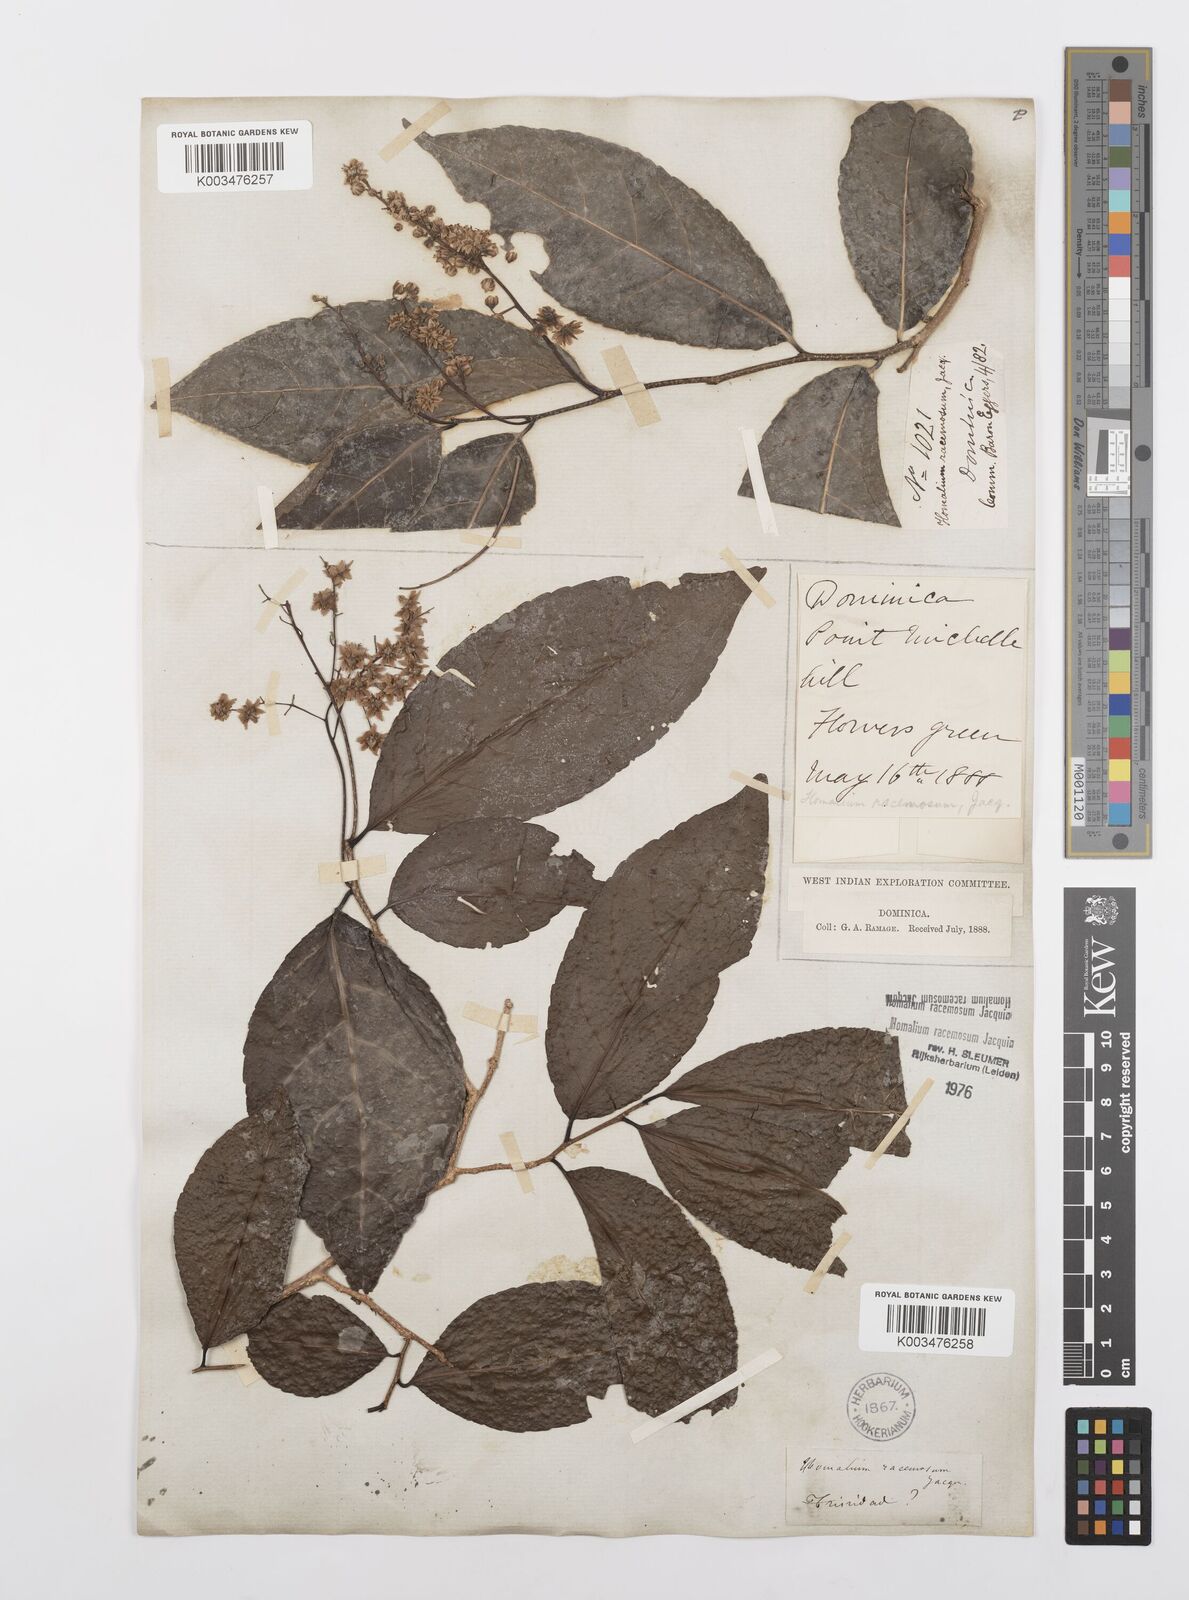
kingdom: Plantae
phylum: Tracheophyta
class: Magnoliopsida
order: Malpighiales
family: Salicaceae
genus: Homalium
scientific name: Homalium racemosum
